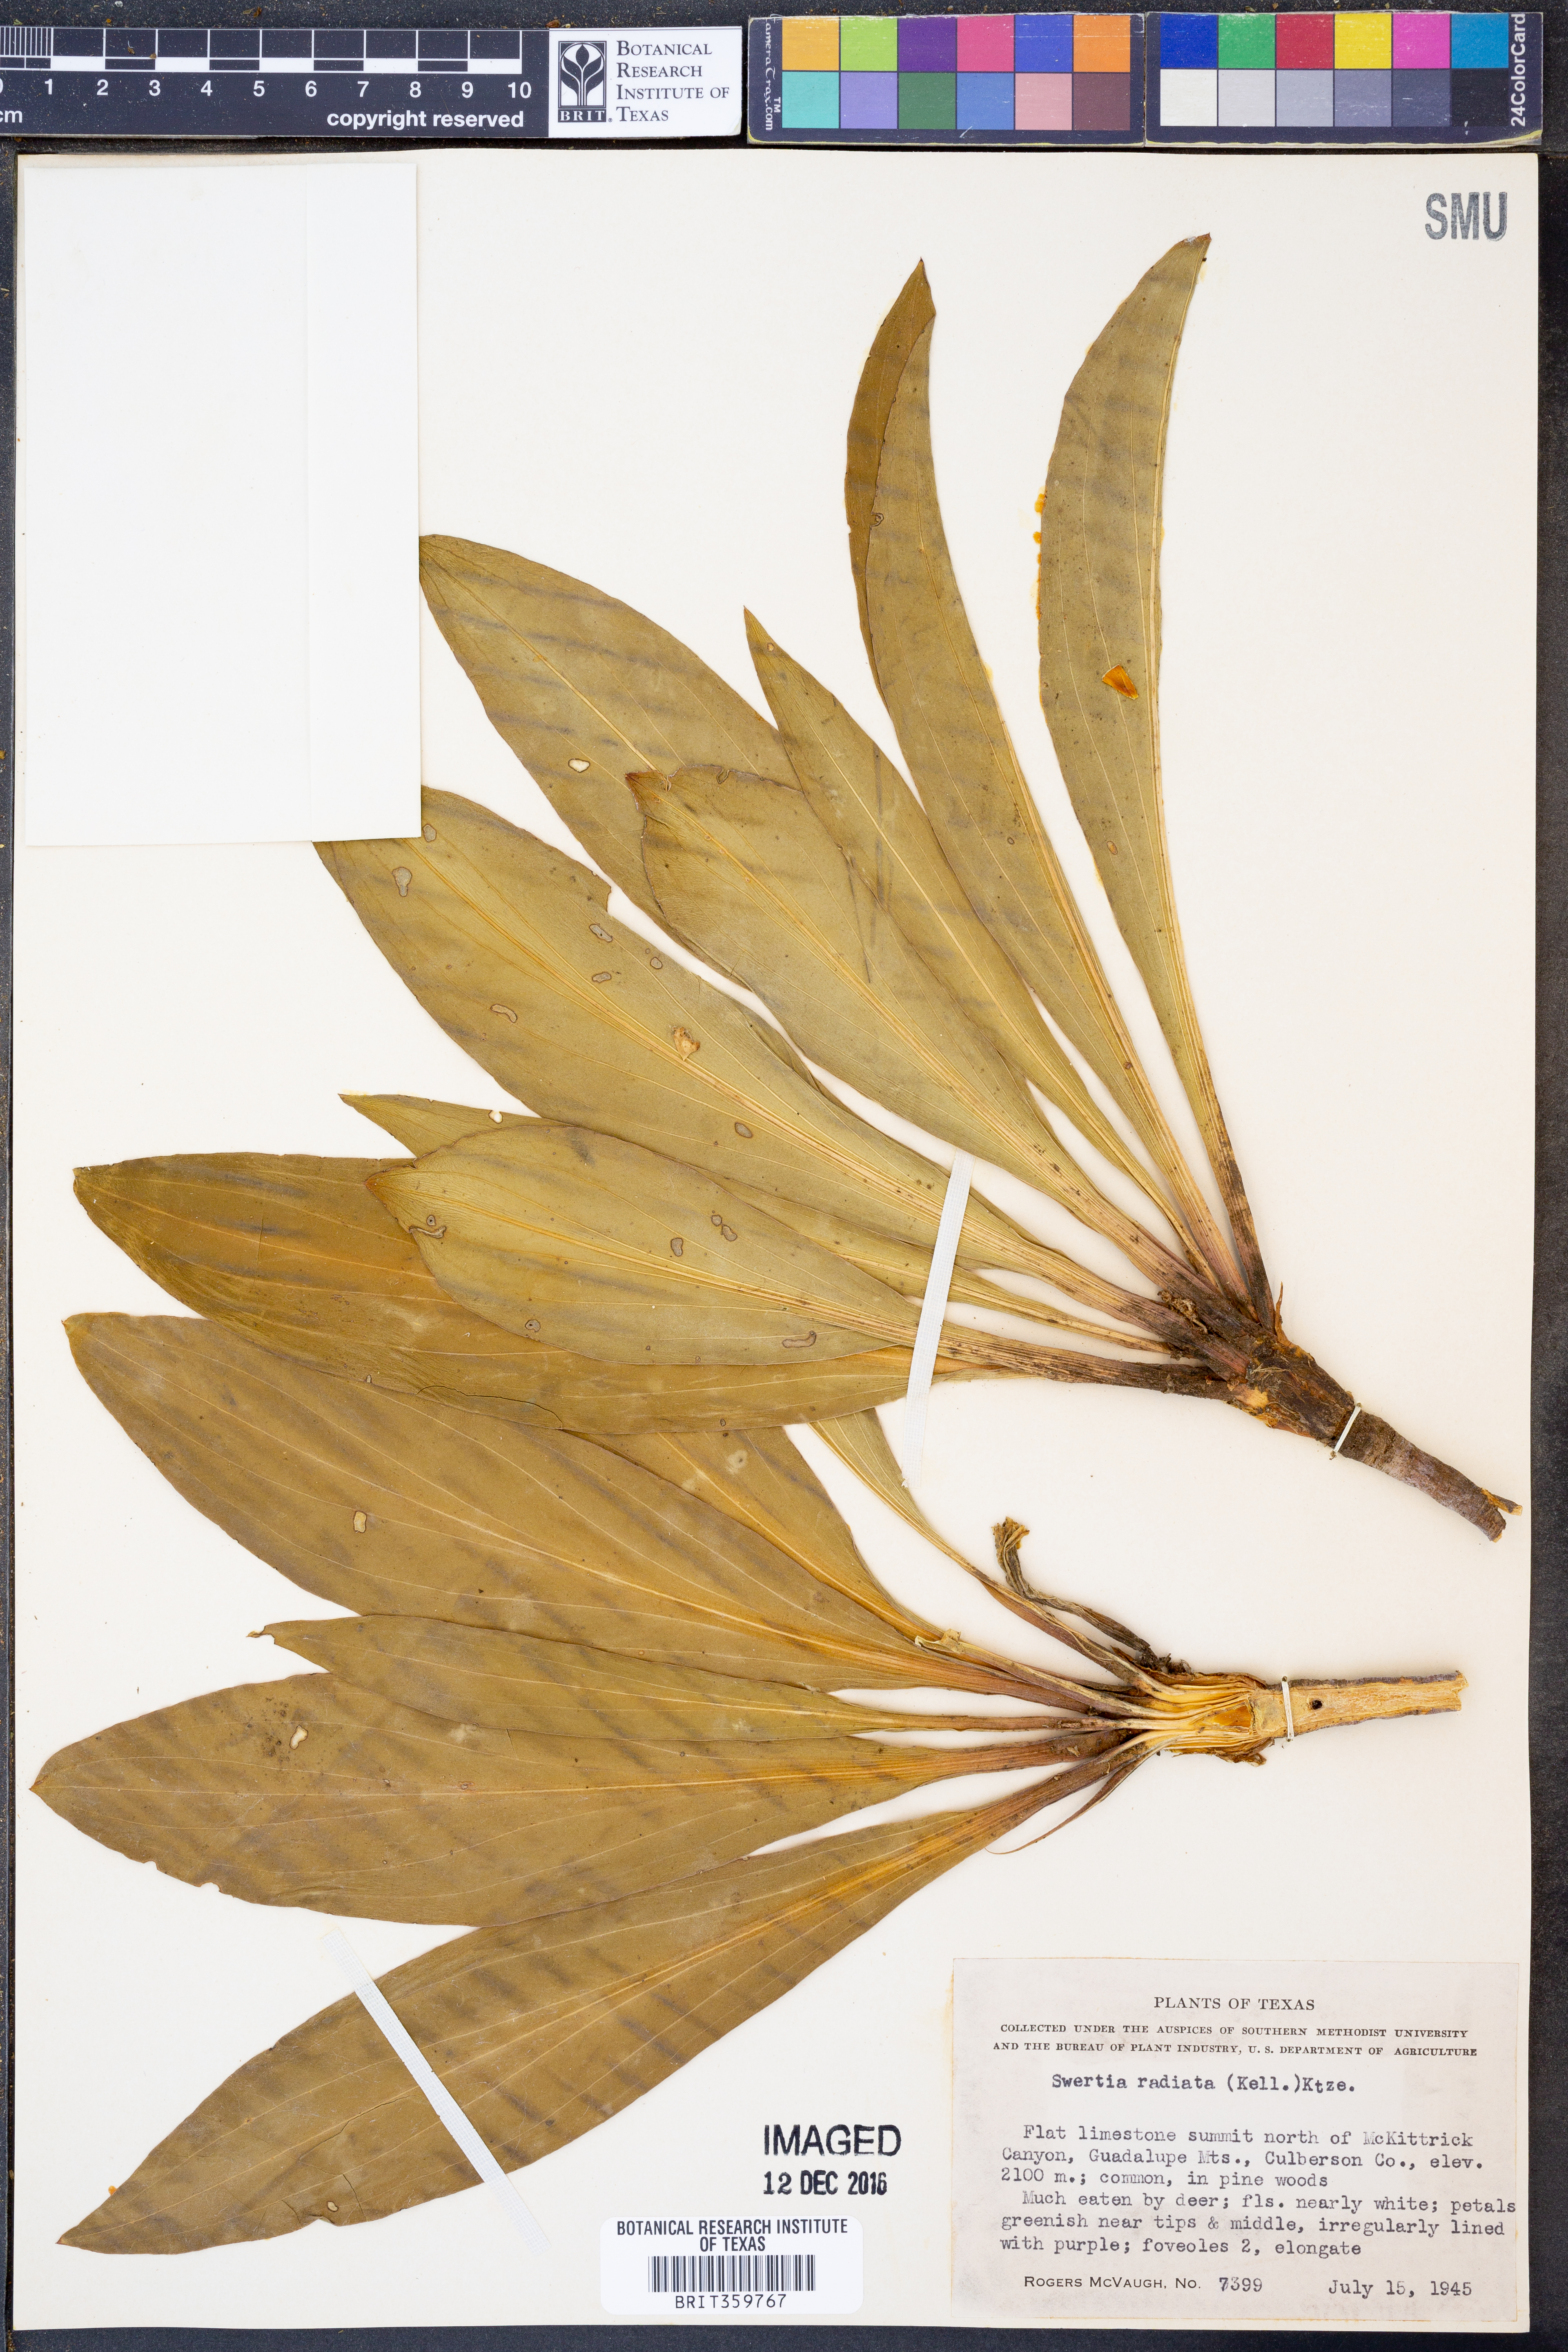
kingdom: Plantae
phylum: Tracheophyta
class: Magnoliopsida
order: Gentianales
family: Gentianaceae
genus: Frasera
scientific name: Frasera speciosa
